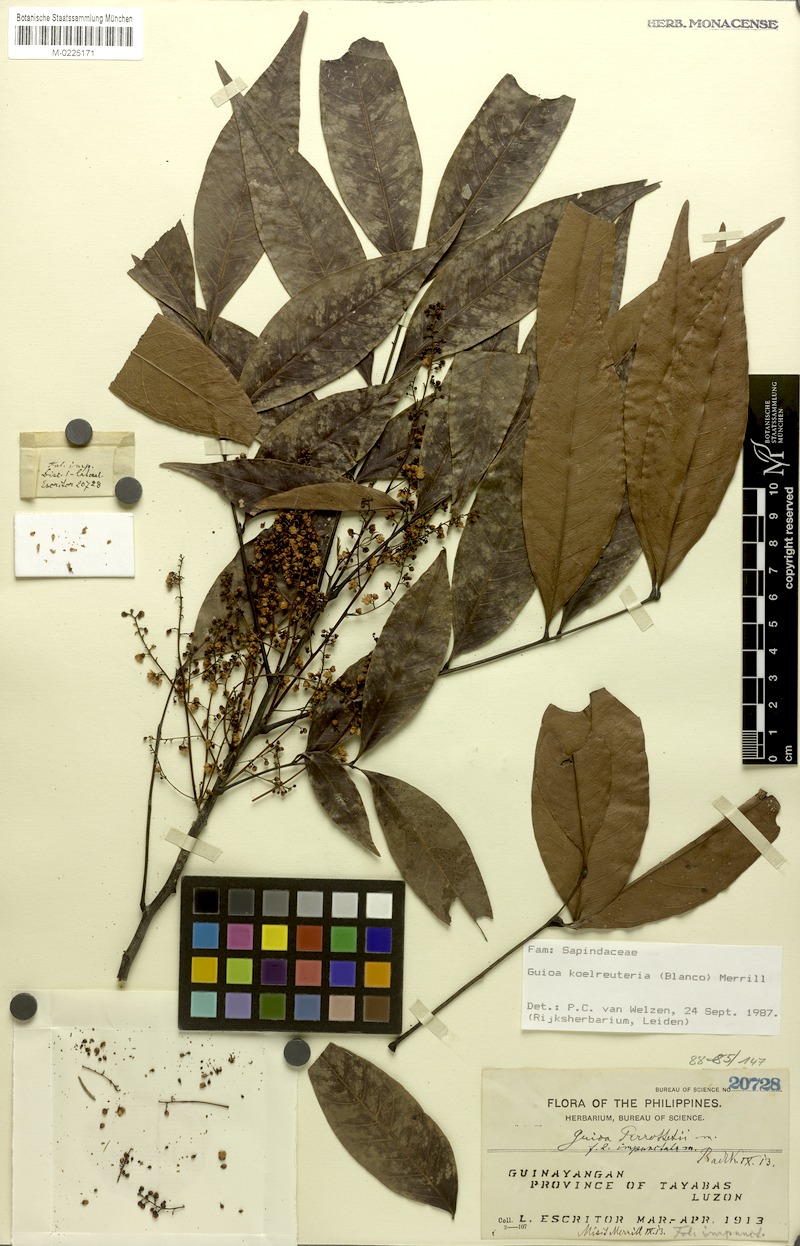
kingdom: Plantae
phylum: Tracheophyta
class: Magnoliopsida
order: Sapindales
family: Sapindaceae
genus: Guioa
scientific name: Guioa koelreuteria
